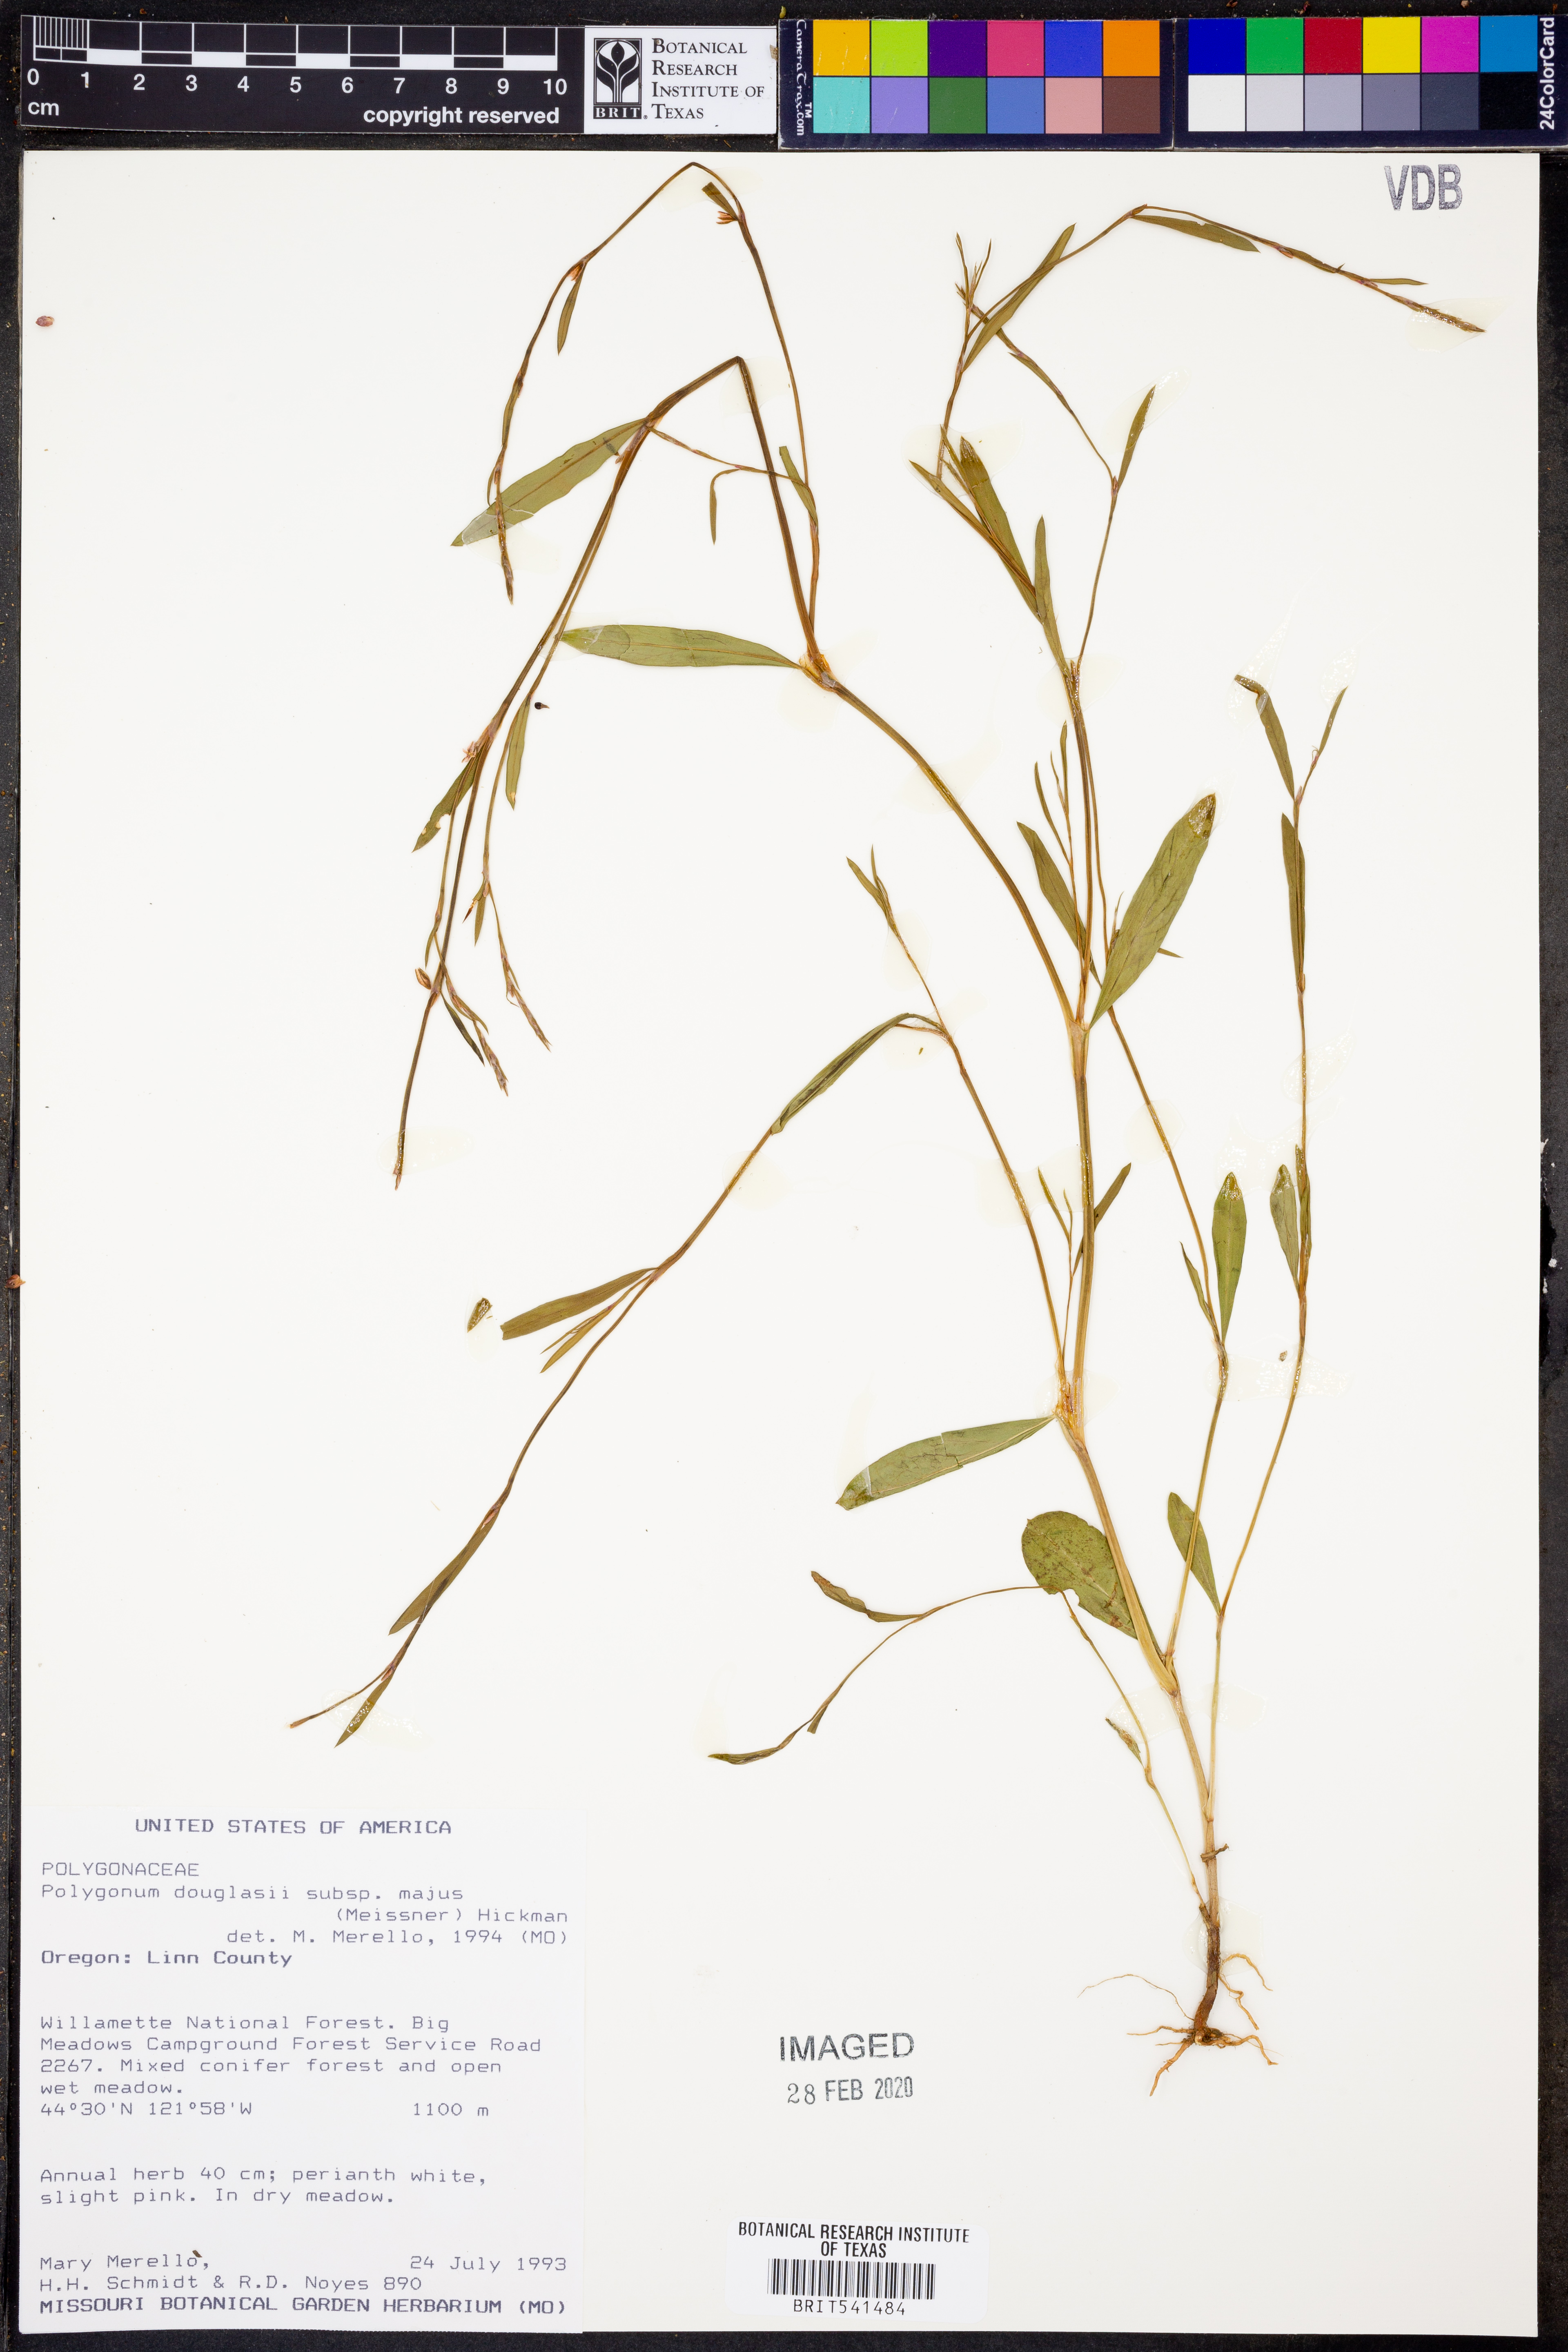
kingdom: Plantae
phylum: Tracheophyta
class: Magnoliopsida
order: Caryophyllales
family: Polygonaceae
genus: Polygonum
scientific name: Polygonum majus
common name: Large knotweed
